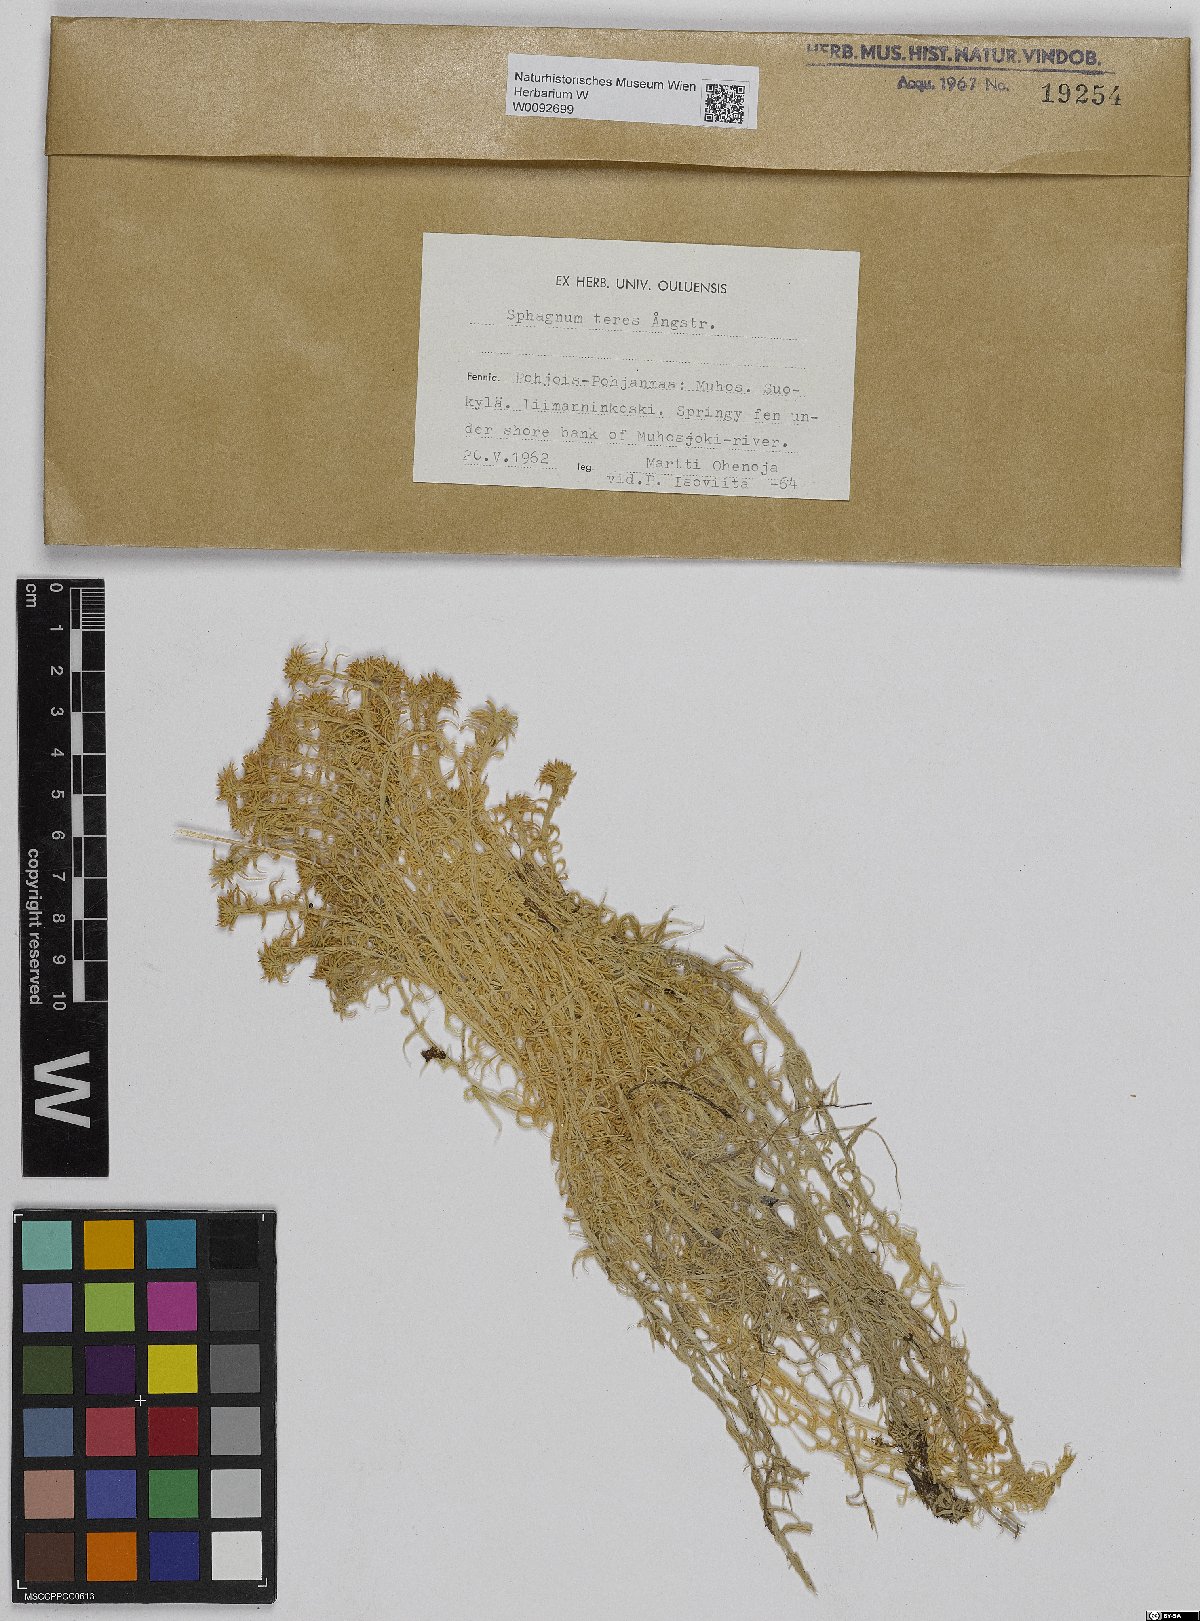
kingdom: Plantae
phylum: Bryophyta
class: Sphagnopsida
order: Sphagnales
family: Sphagnaceae
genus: Sphagnum
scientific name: Sphagnum teres
